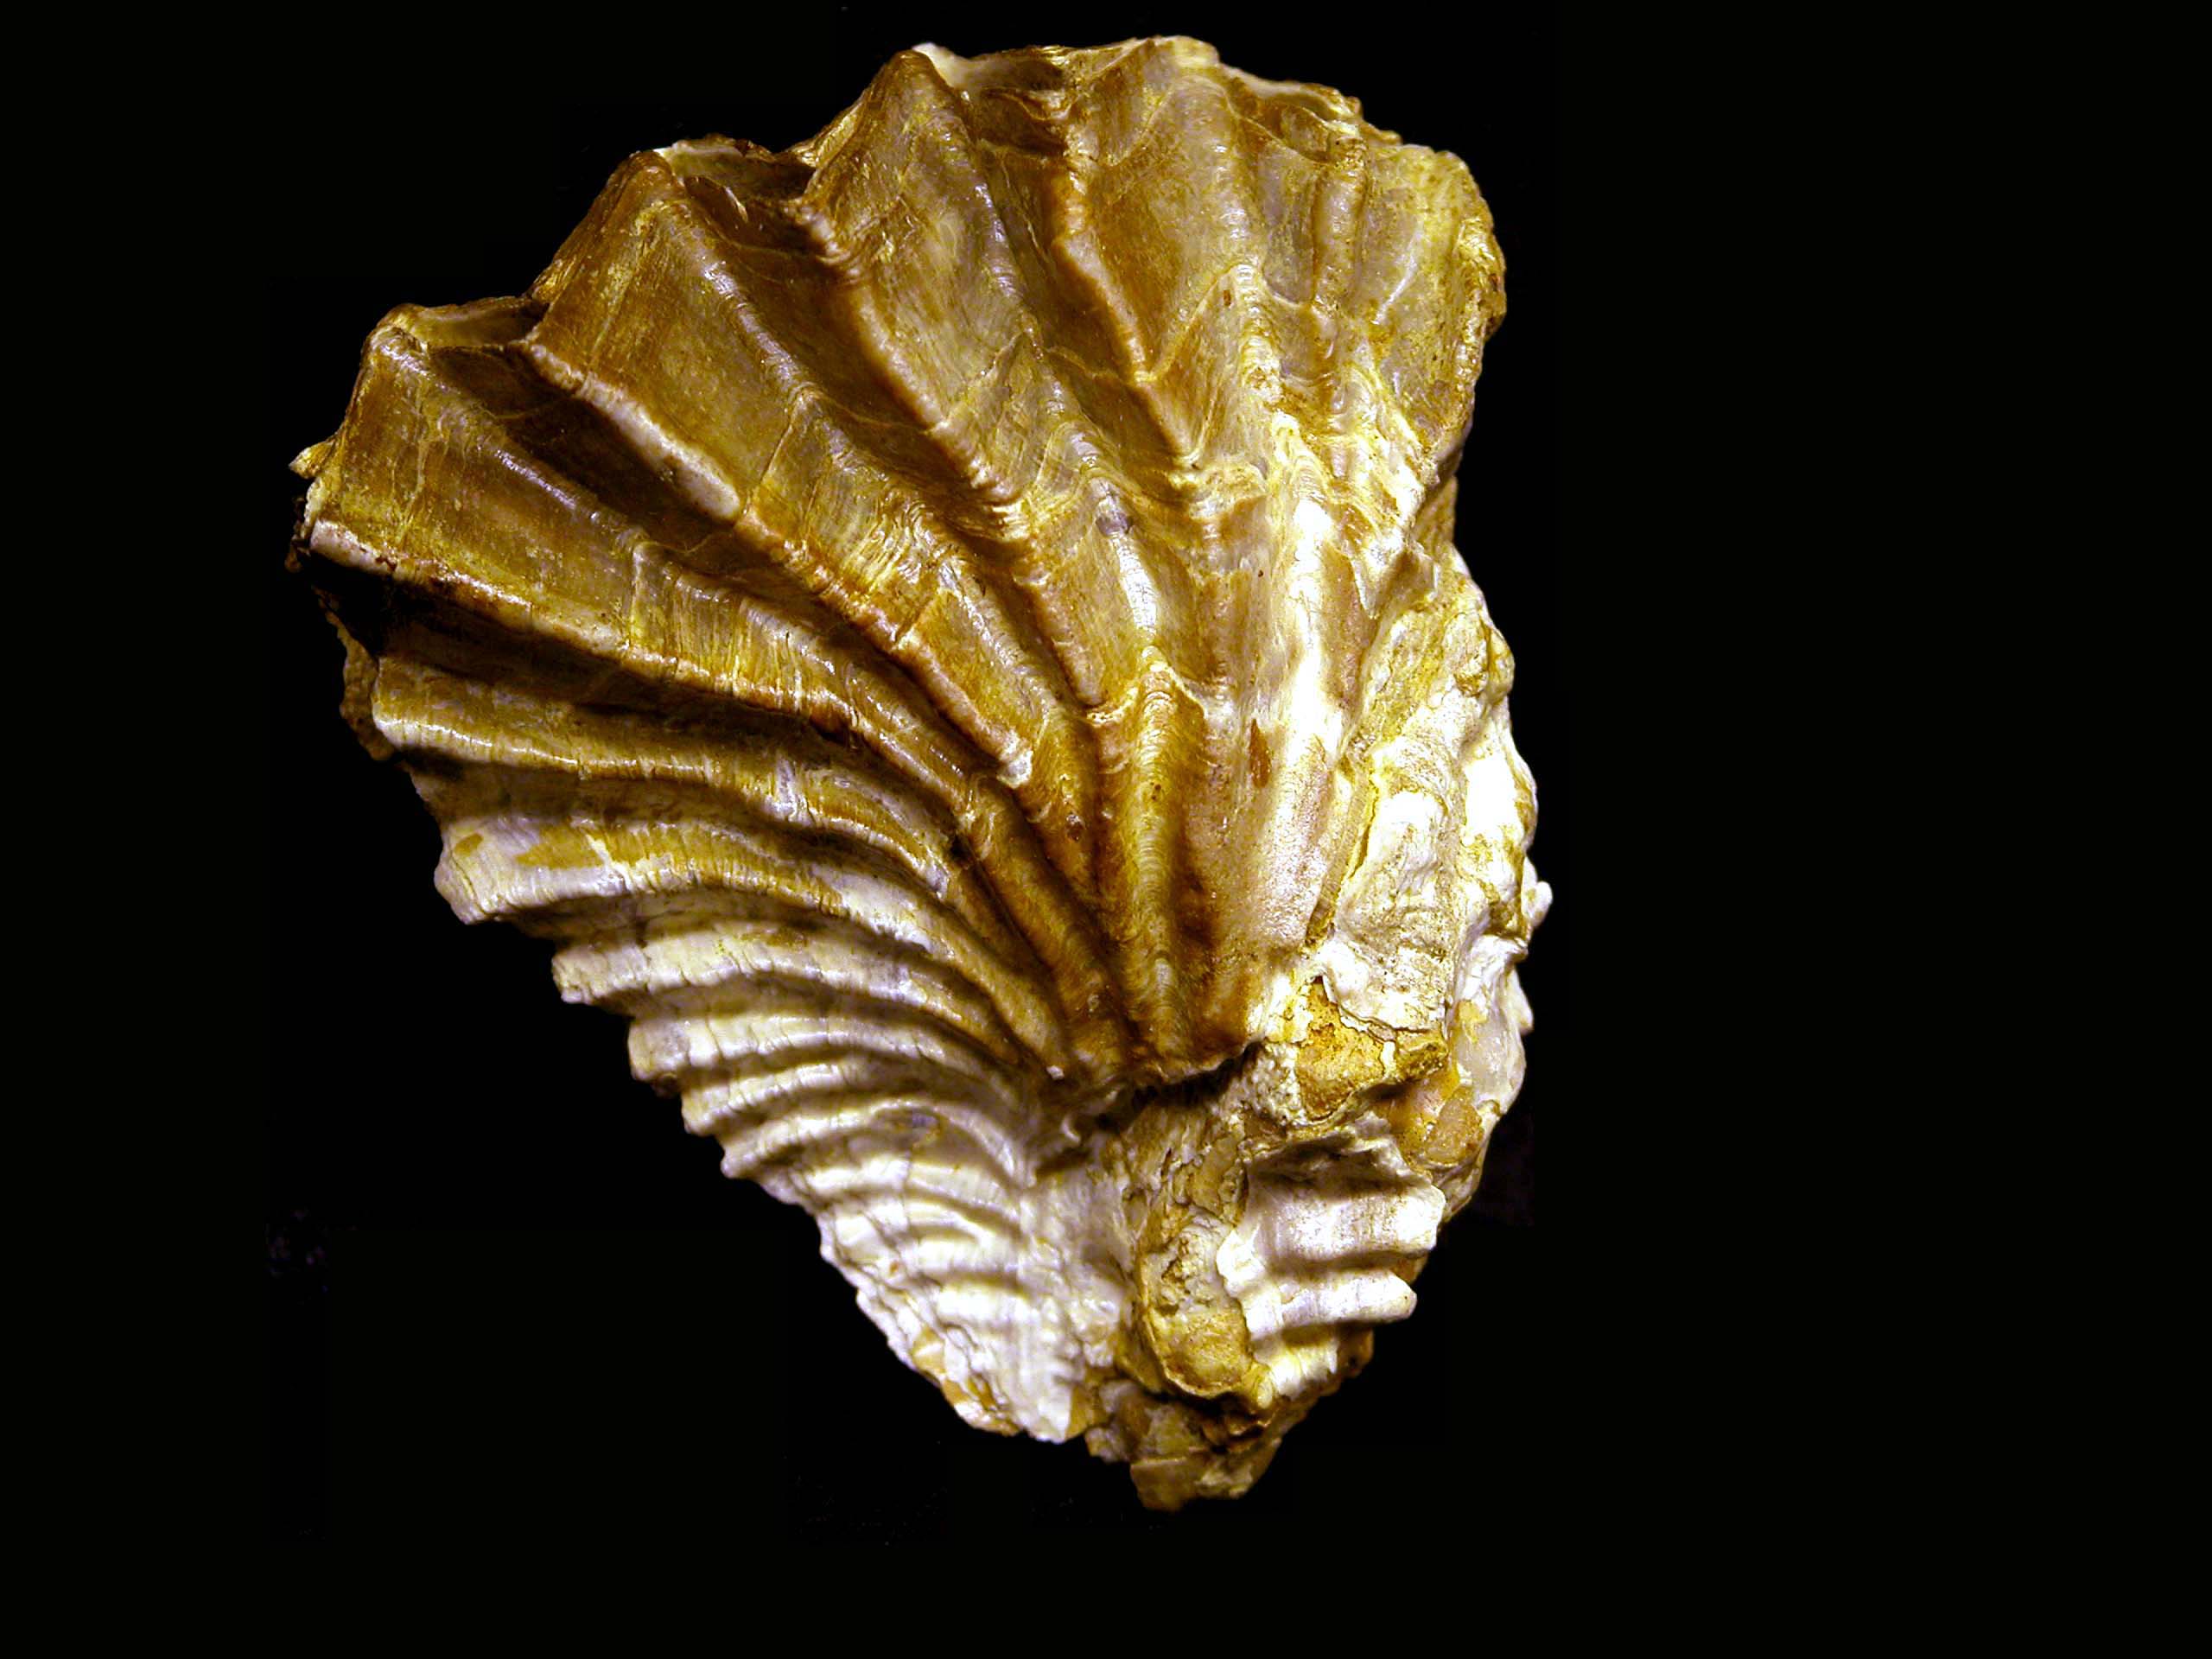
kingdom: Animalia
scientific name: Animalia
